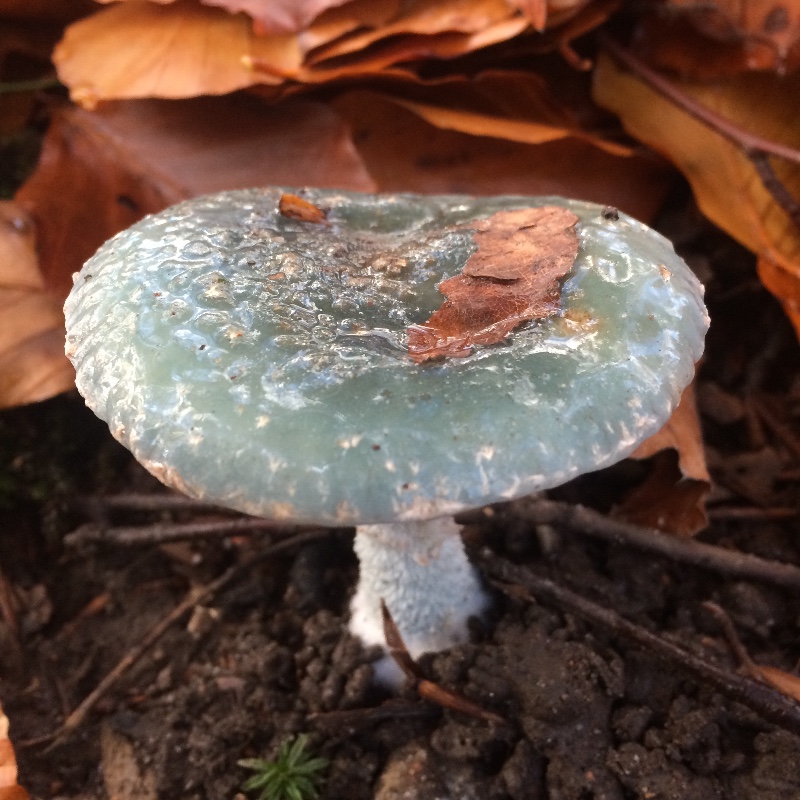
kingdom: Fungi
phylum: Basidiomycota
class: Agaricomycetes
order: Agaricales
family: Strophariaceae
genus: Stropharia
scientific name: Stropharia aeruginosa
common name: spanskgrøn bredblad
